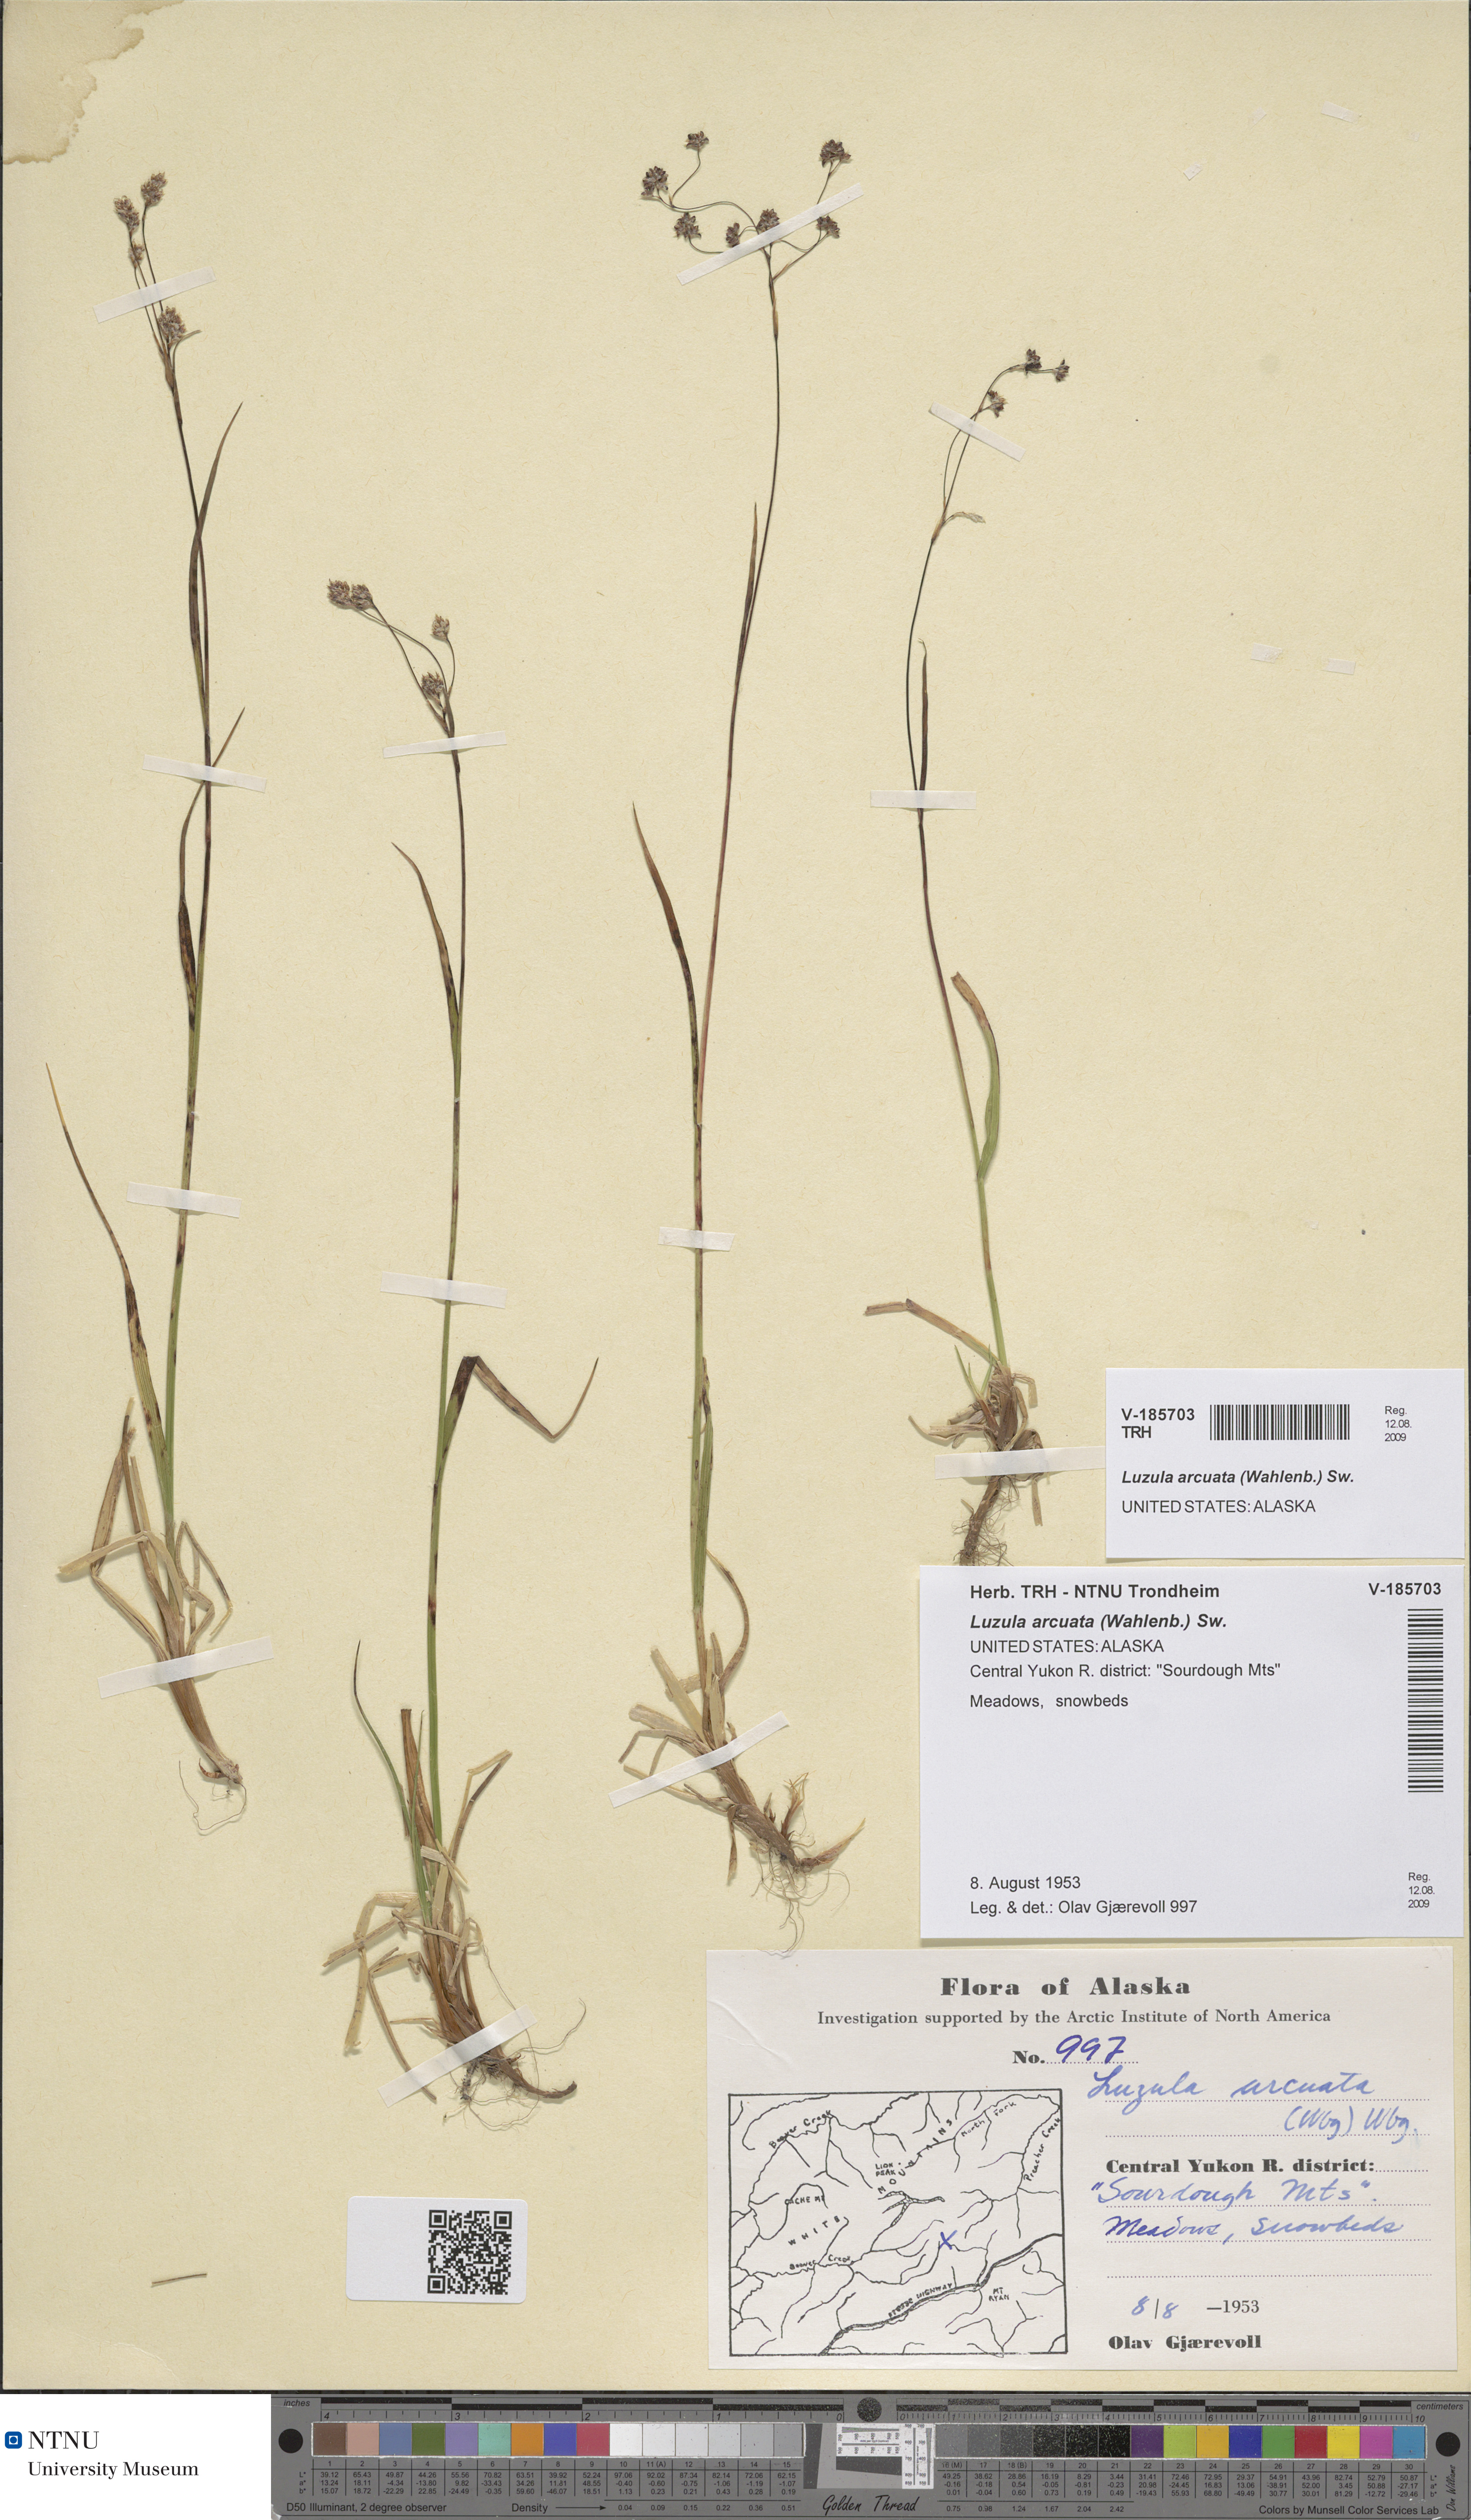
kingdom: Plantae
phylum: Tracheophyta
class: Liliopsida
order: Poales
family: Juncaceae
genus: Luzula
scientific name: Luzula arcuata
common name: Curved wood-rush
